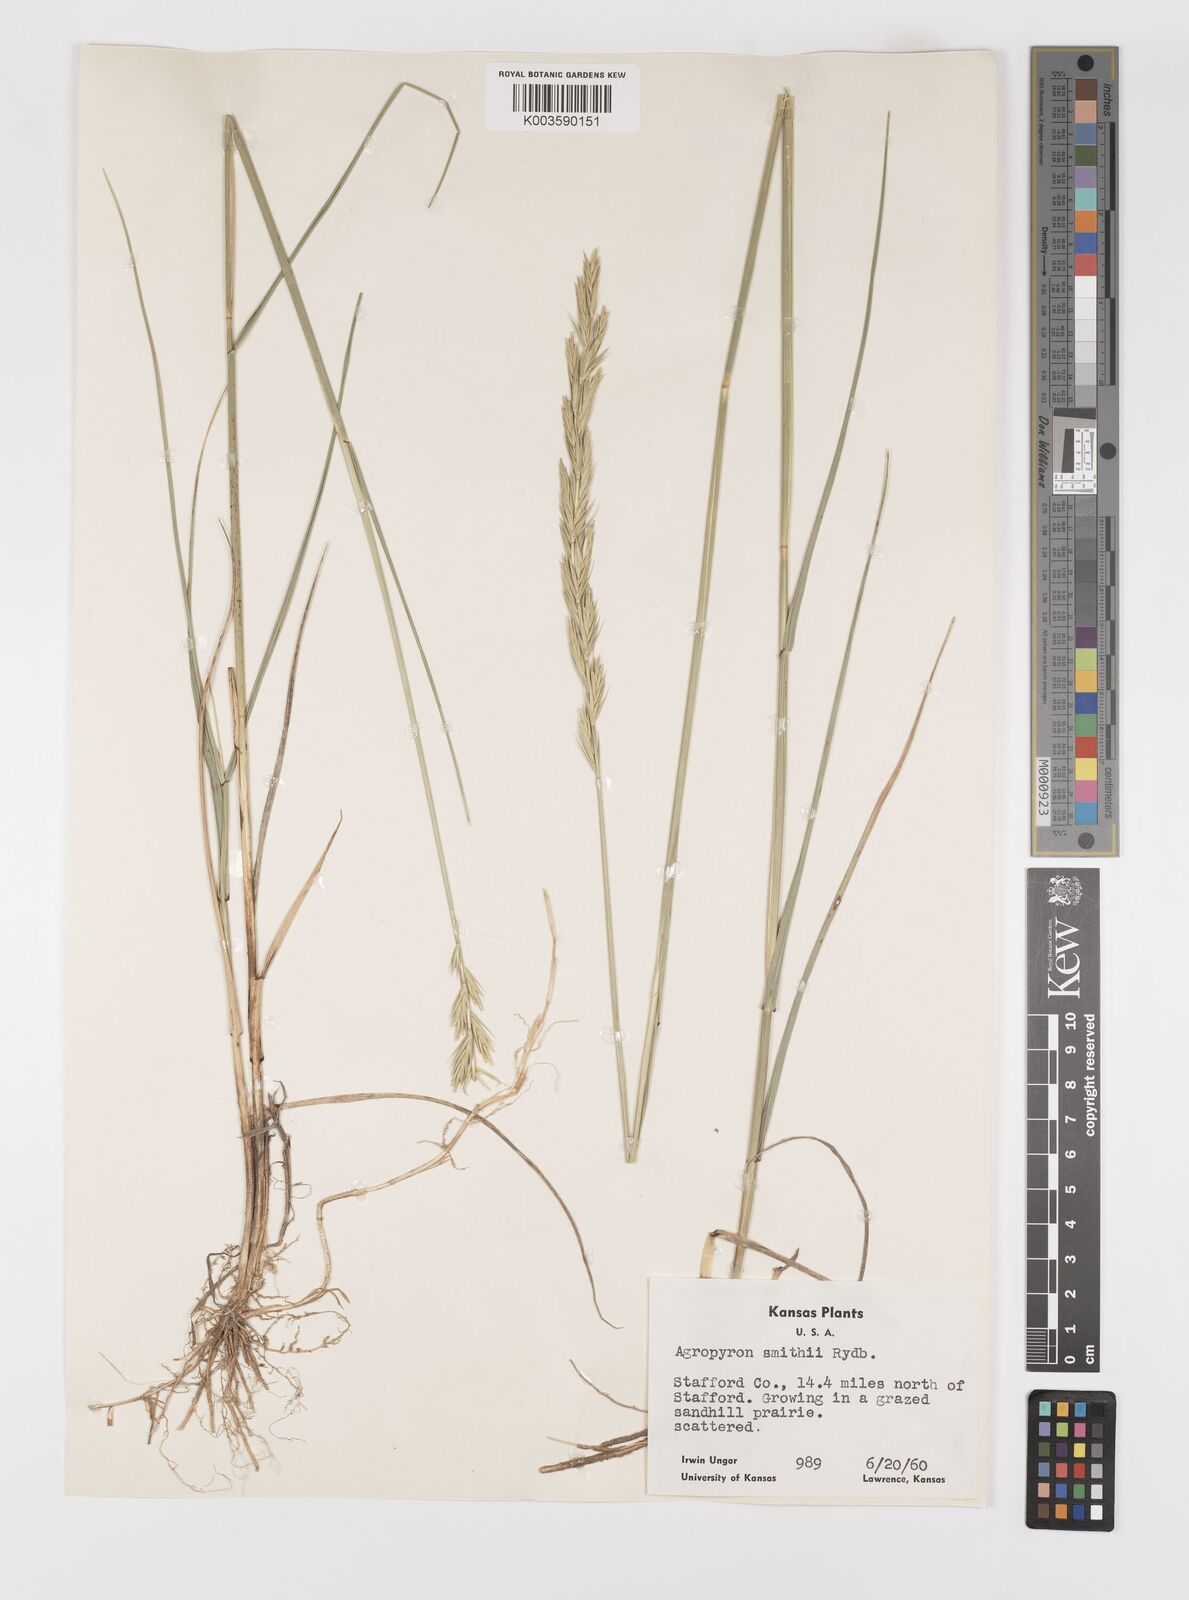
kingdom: Plantae
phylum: Tracheophyta
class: Liliopsida
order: Poales
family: Poaceae
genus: Elymus
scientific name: Elymus smithii
